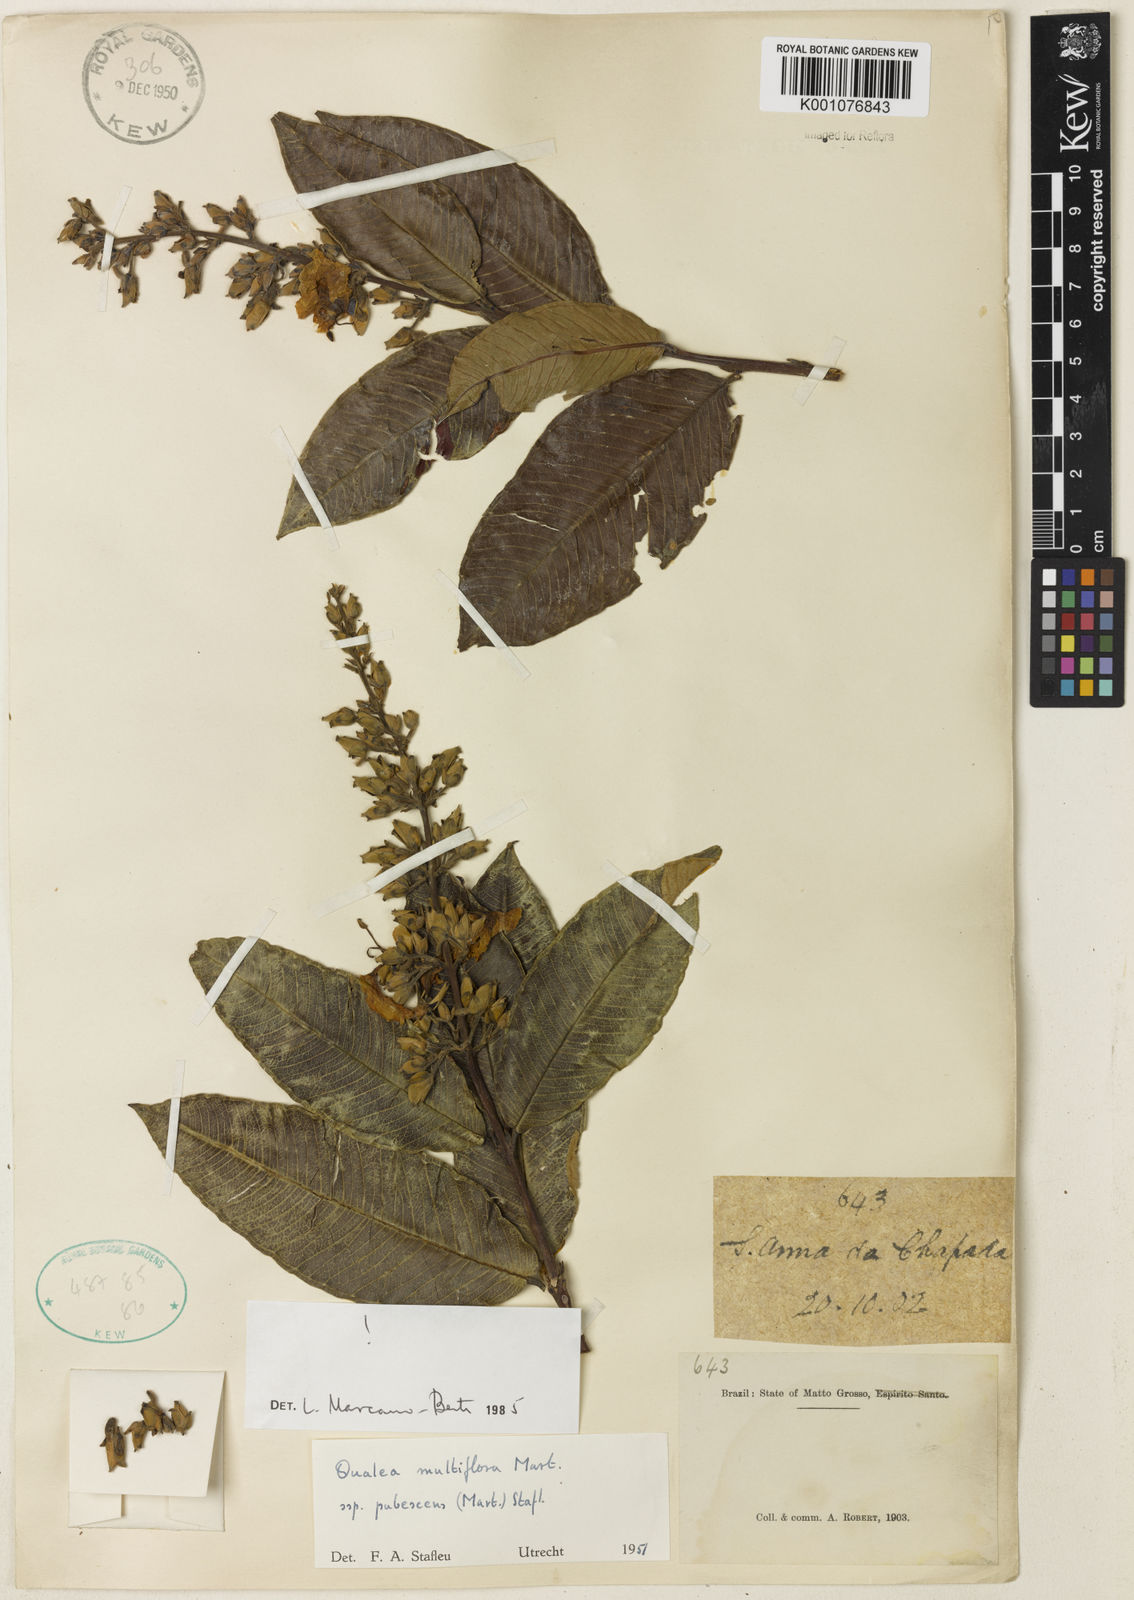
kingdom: Plantae
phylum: Tracheophyta
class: Magnoliopsida
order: Myrtales
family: Vochysiaceae
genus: Qualea
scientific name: Qualea multiflora
